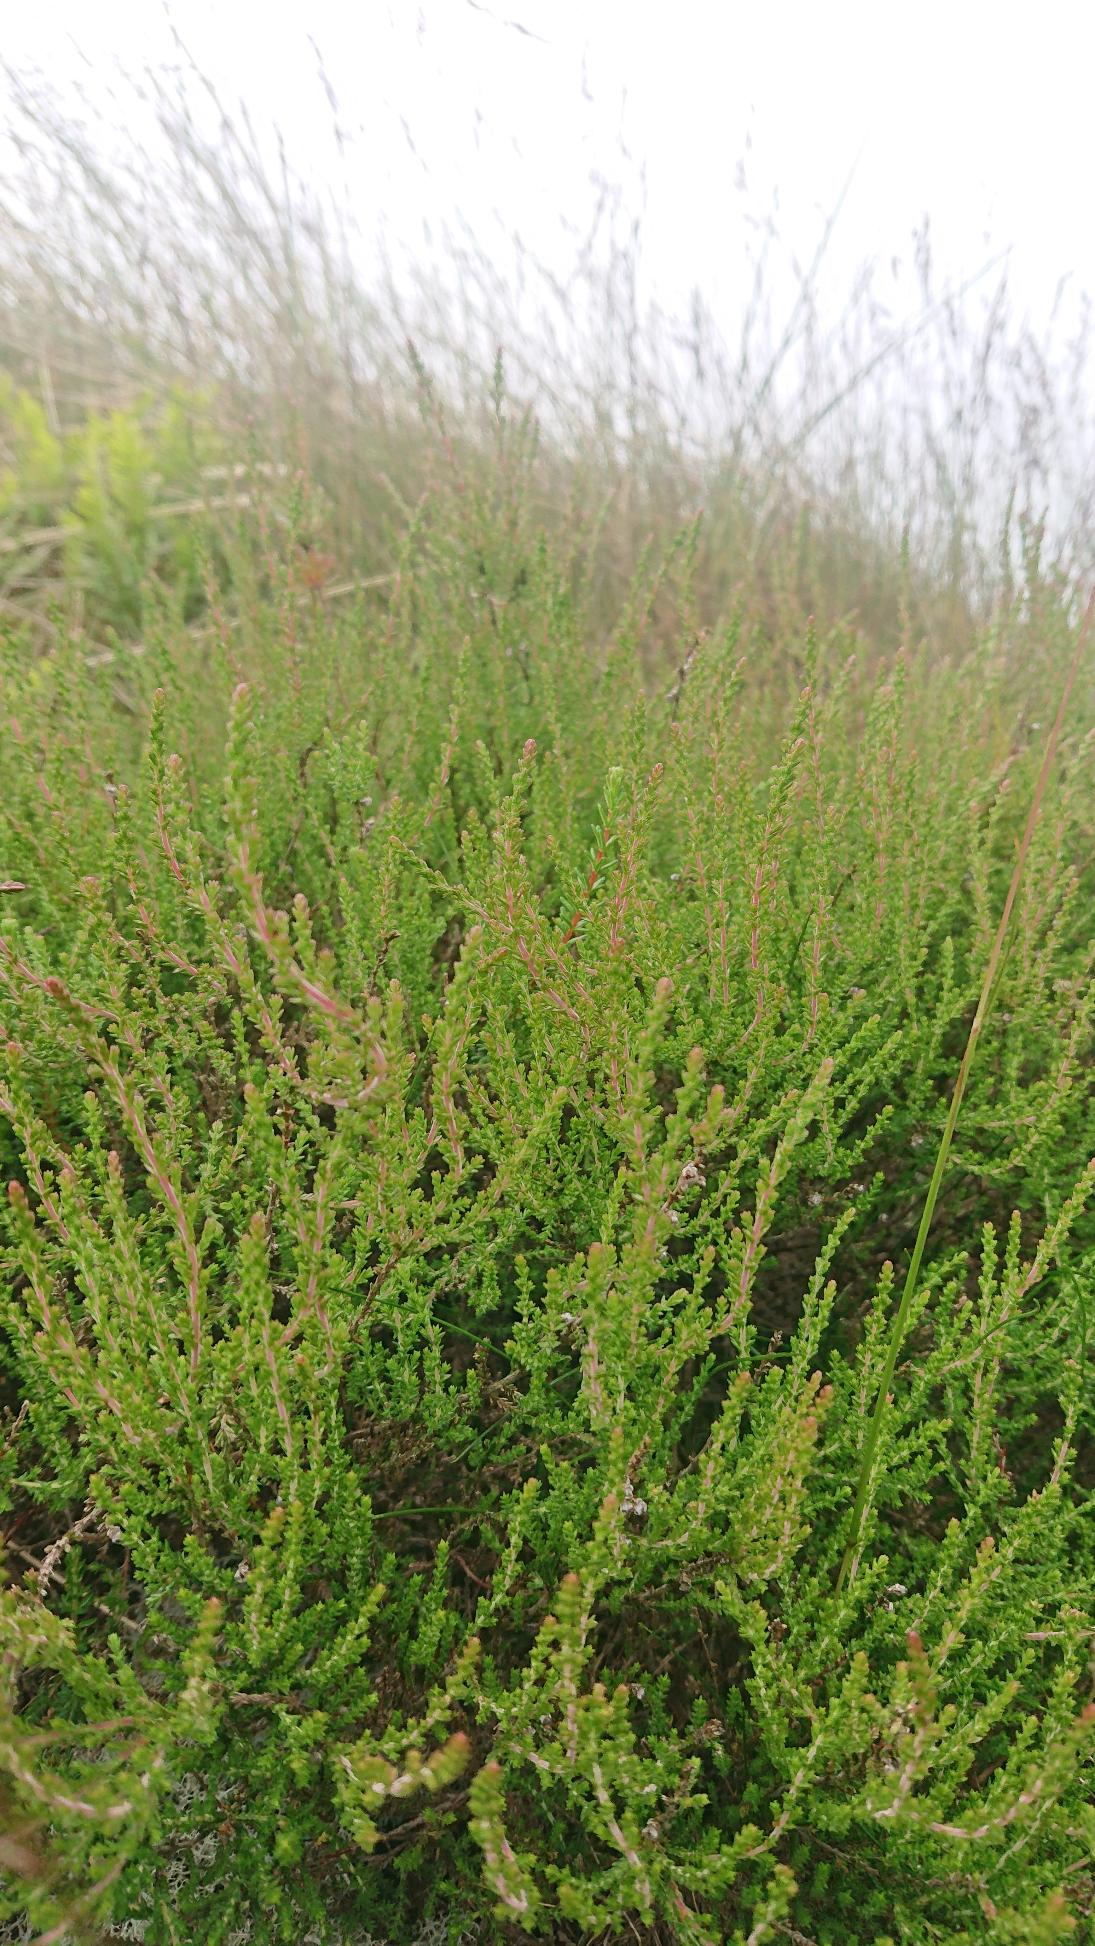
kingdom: Plantae
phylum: Tracheophyta
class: Magnoliopsida
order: Ericales
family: Ericaceae
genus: Calluna
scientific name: Calluna vulgaris
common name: Hedelyng
